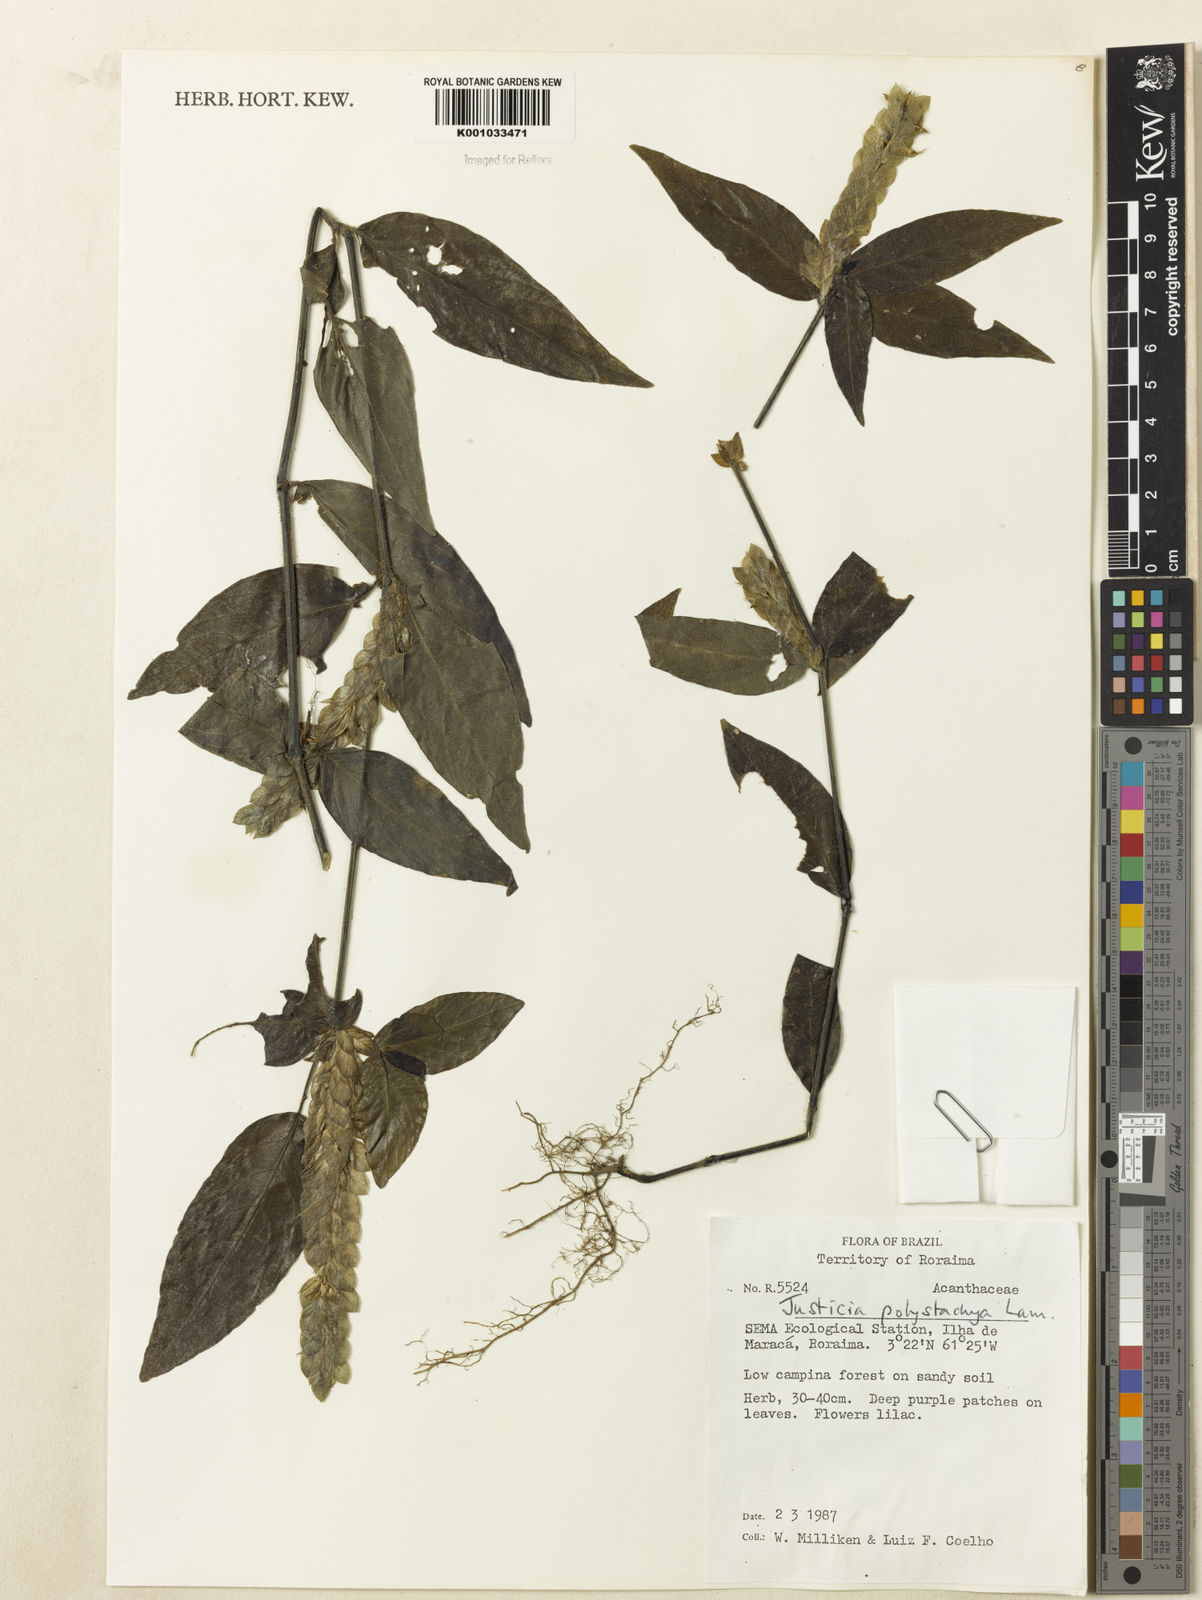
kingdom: Plantae
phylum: Tracheophyta
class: Magnoliopsida
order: Lamiales
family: Acanthaceae
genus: Justicia
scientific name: Justicia polystachya
